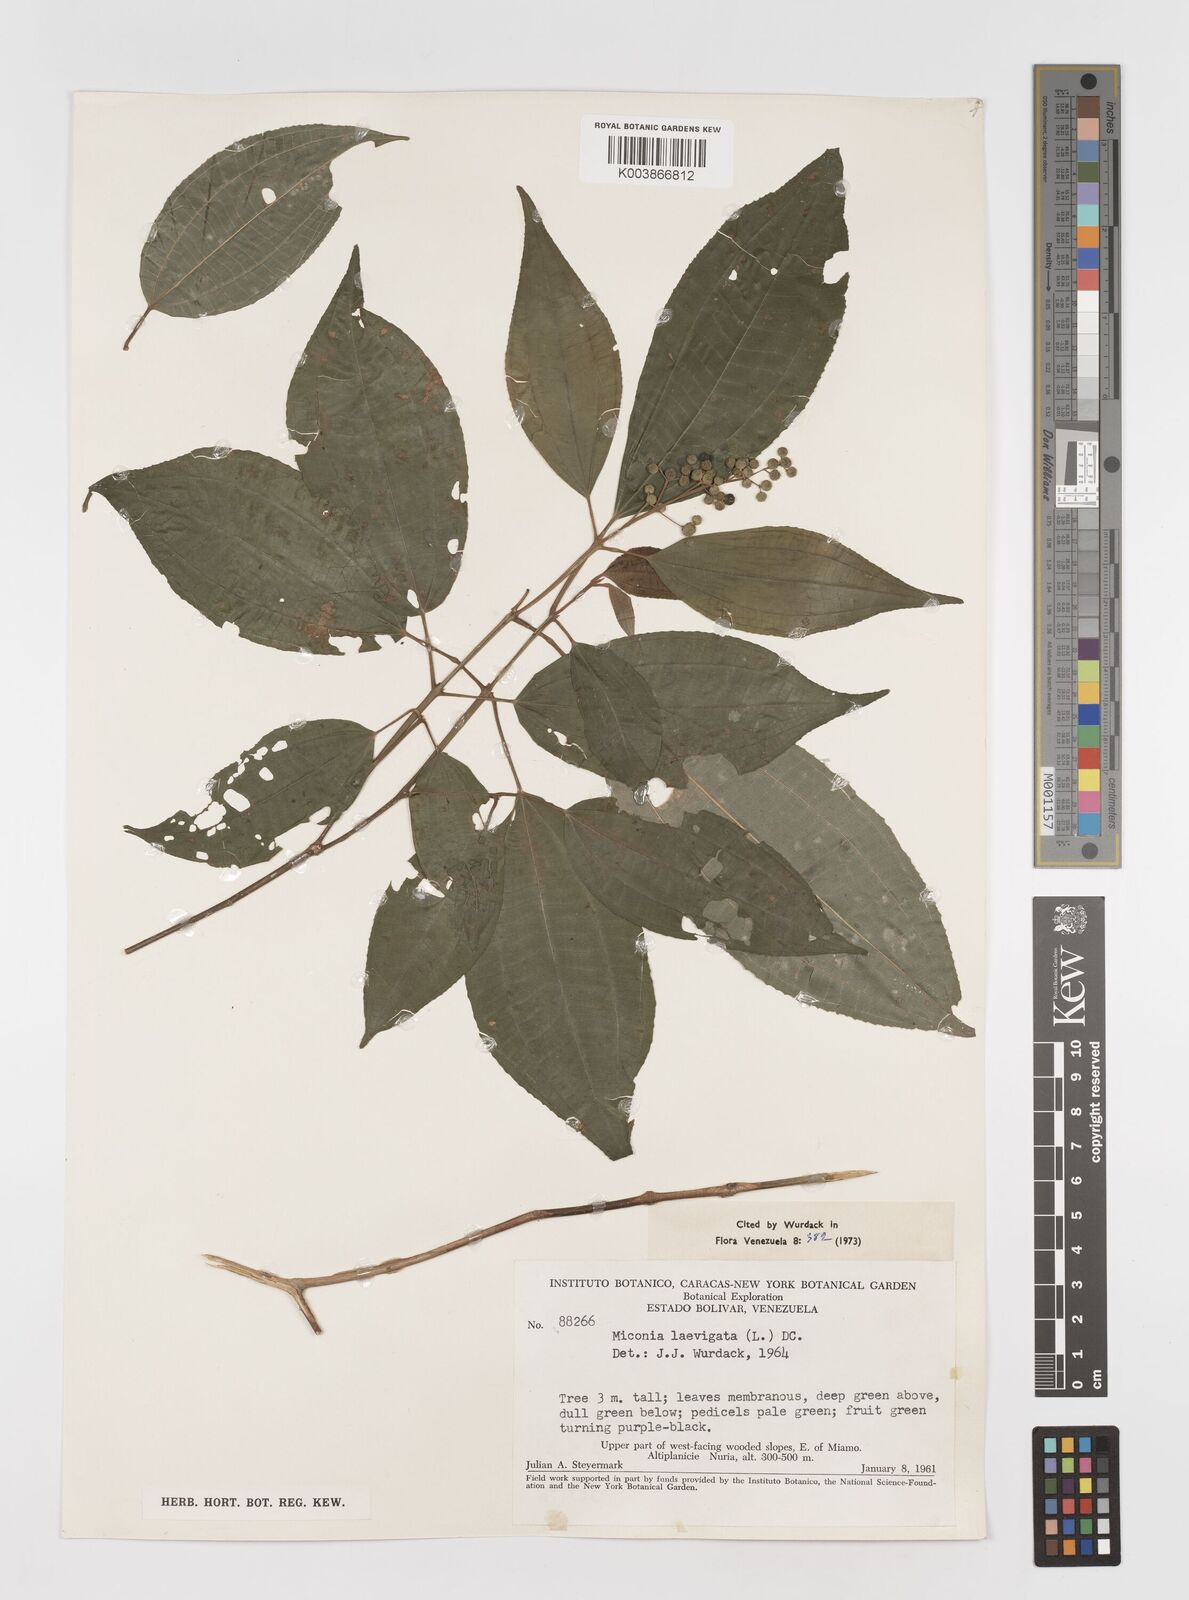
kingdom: Plantae
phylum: Tracheophyta
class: Magnoliopsida
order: Myrtales
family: Melastomataceae
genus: Miconia
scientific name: Miconia laevigata
